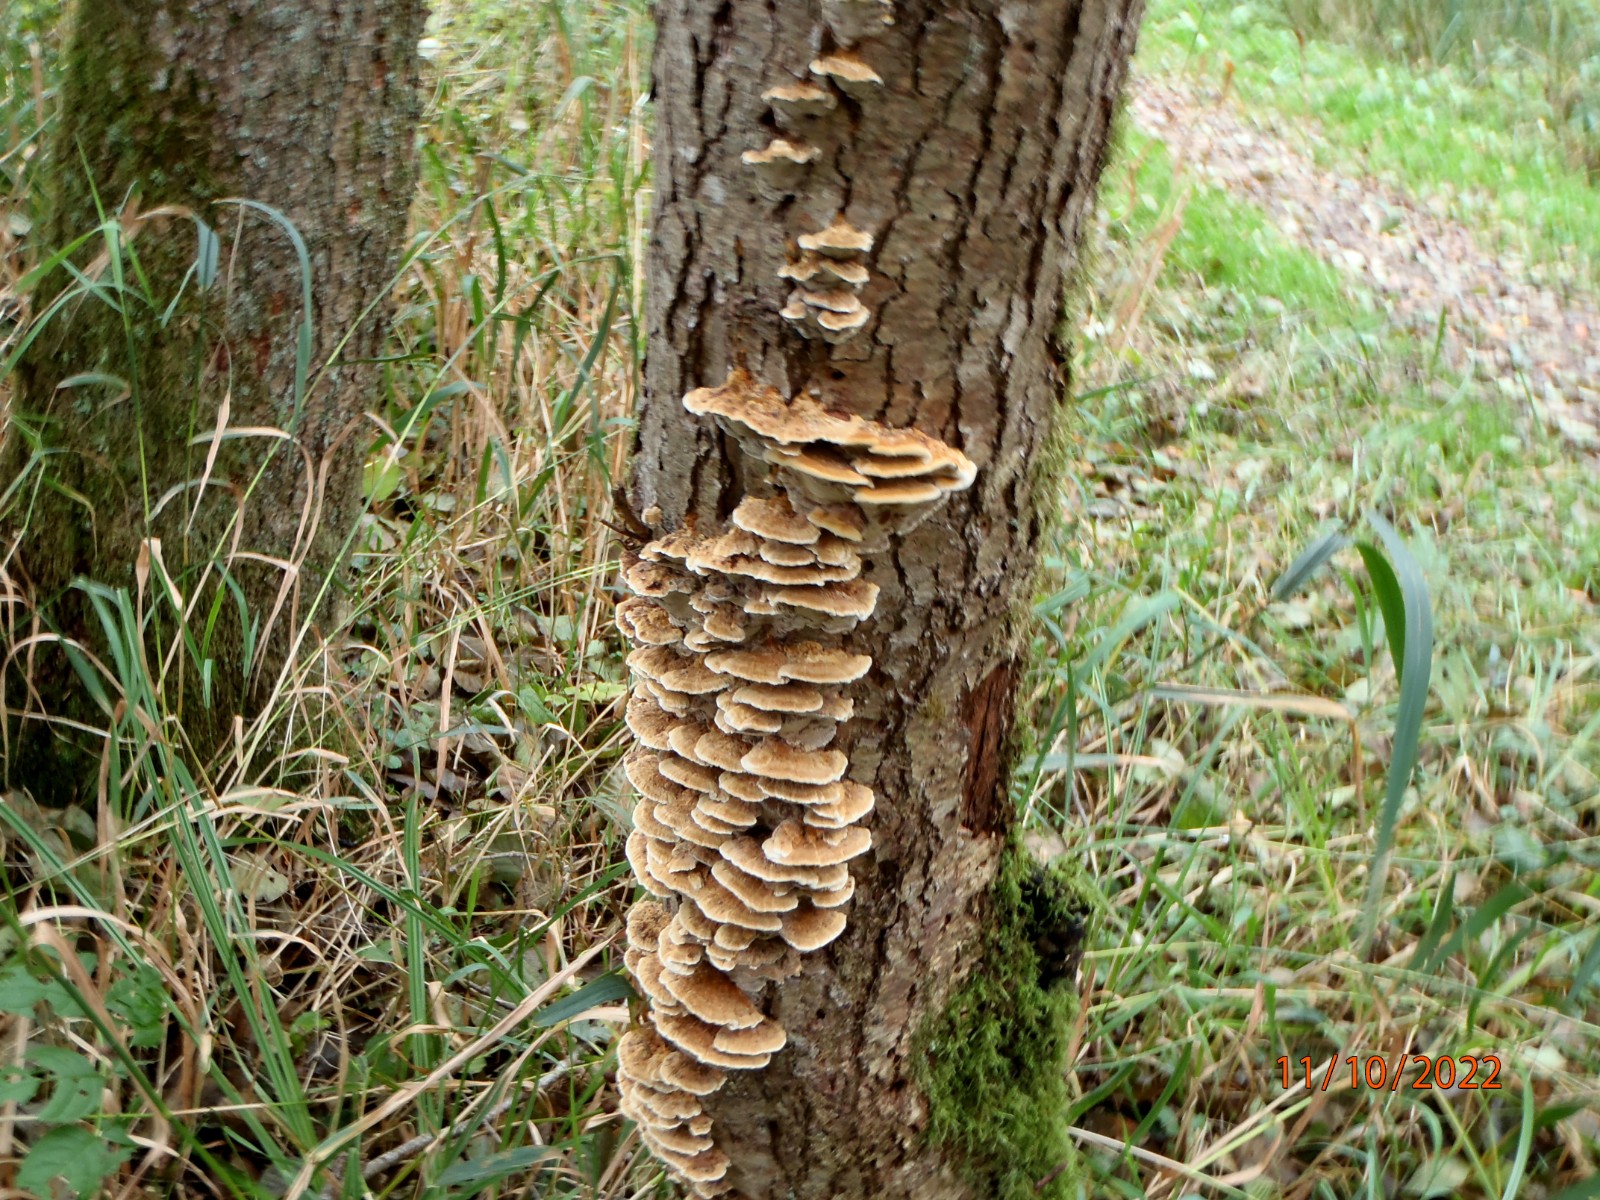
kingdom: Fungi
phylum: Basidiomycota
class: Agaricomycetes
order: Hymenochaetales
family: Hymenochaetaceae
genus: Xanthoporia
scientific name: Xanthoporia radiata
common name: elle-spejlporesvamp
